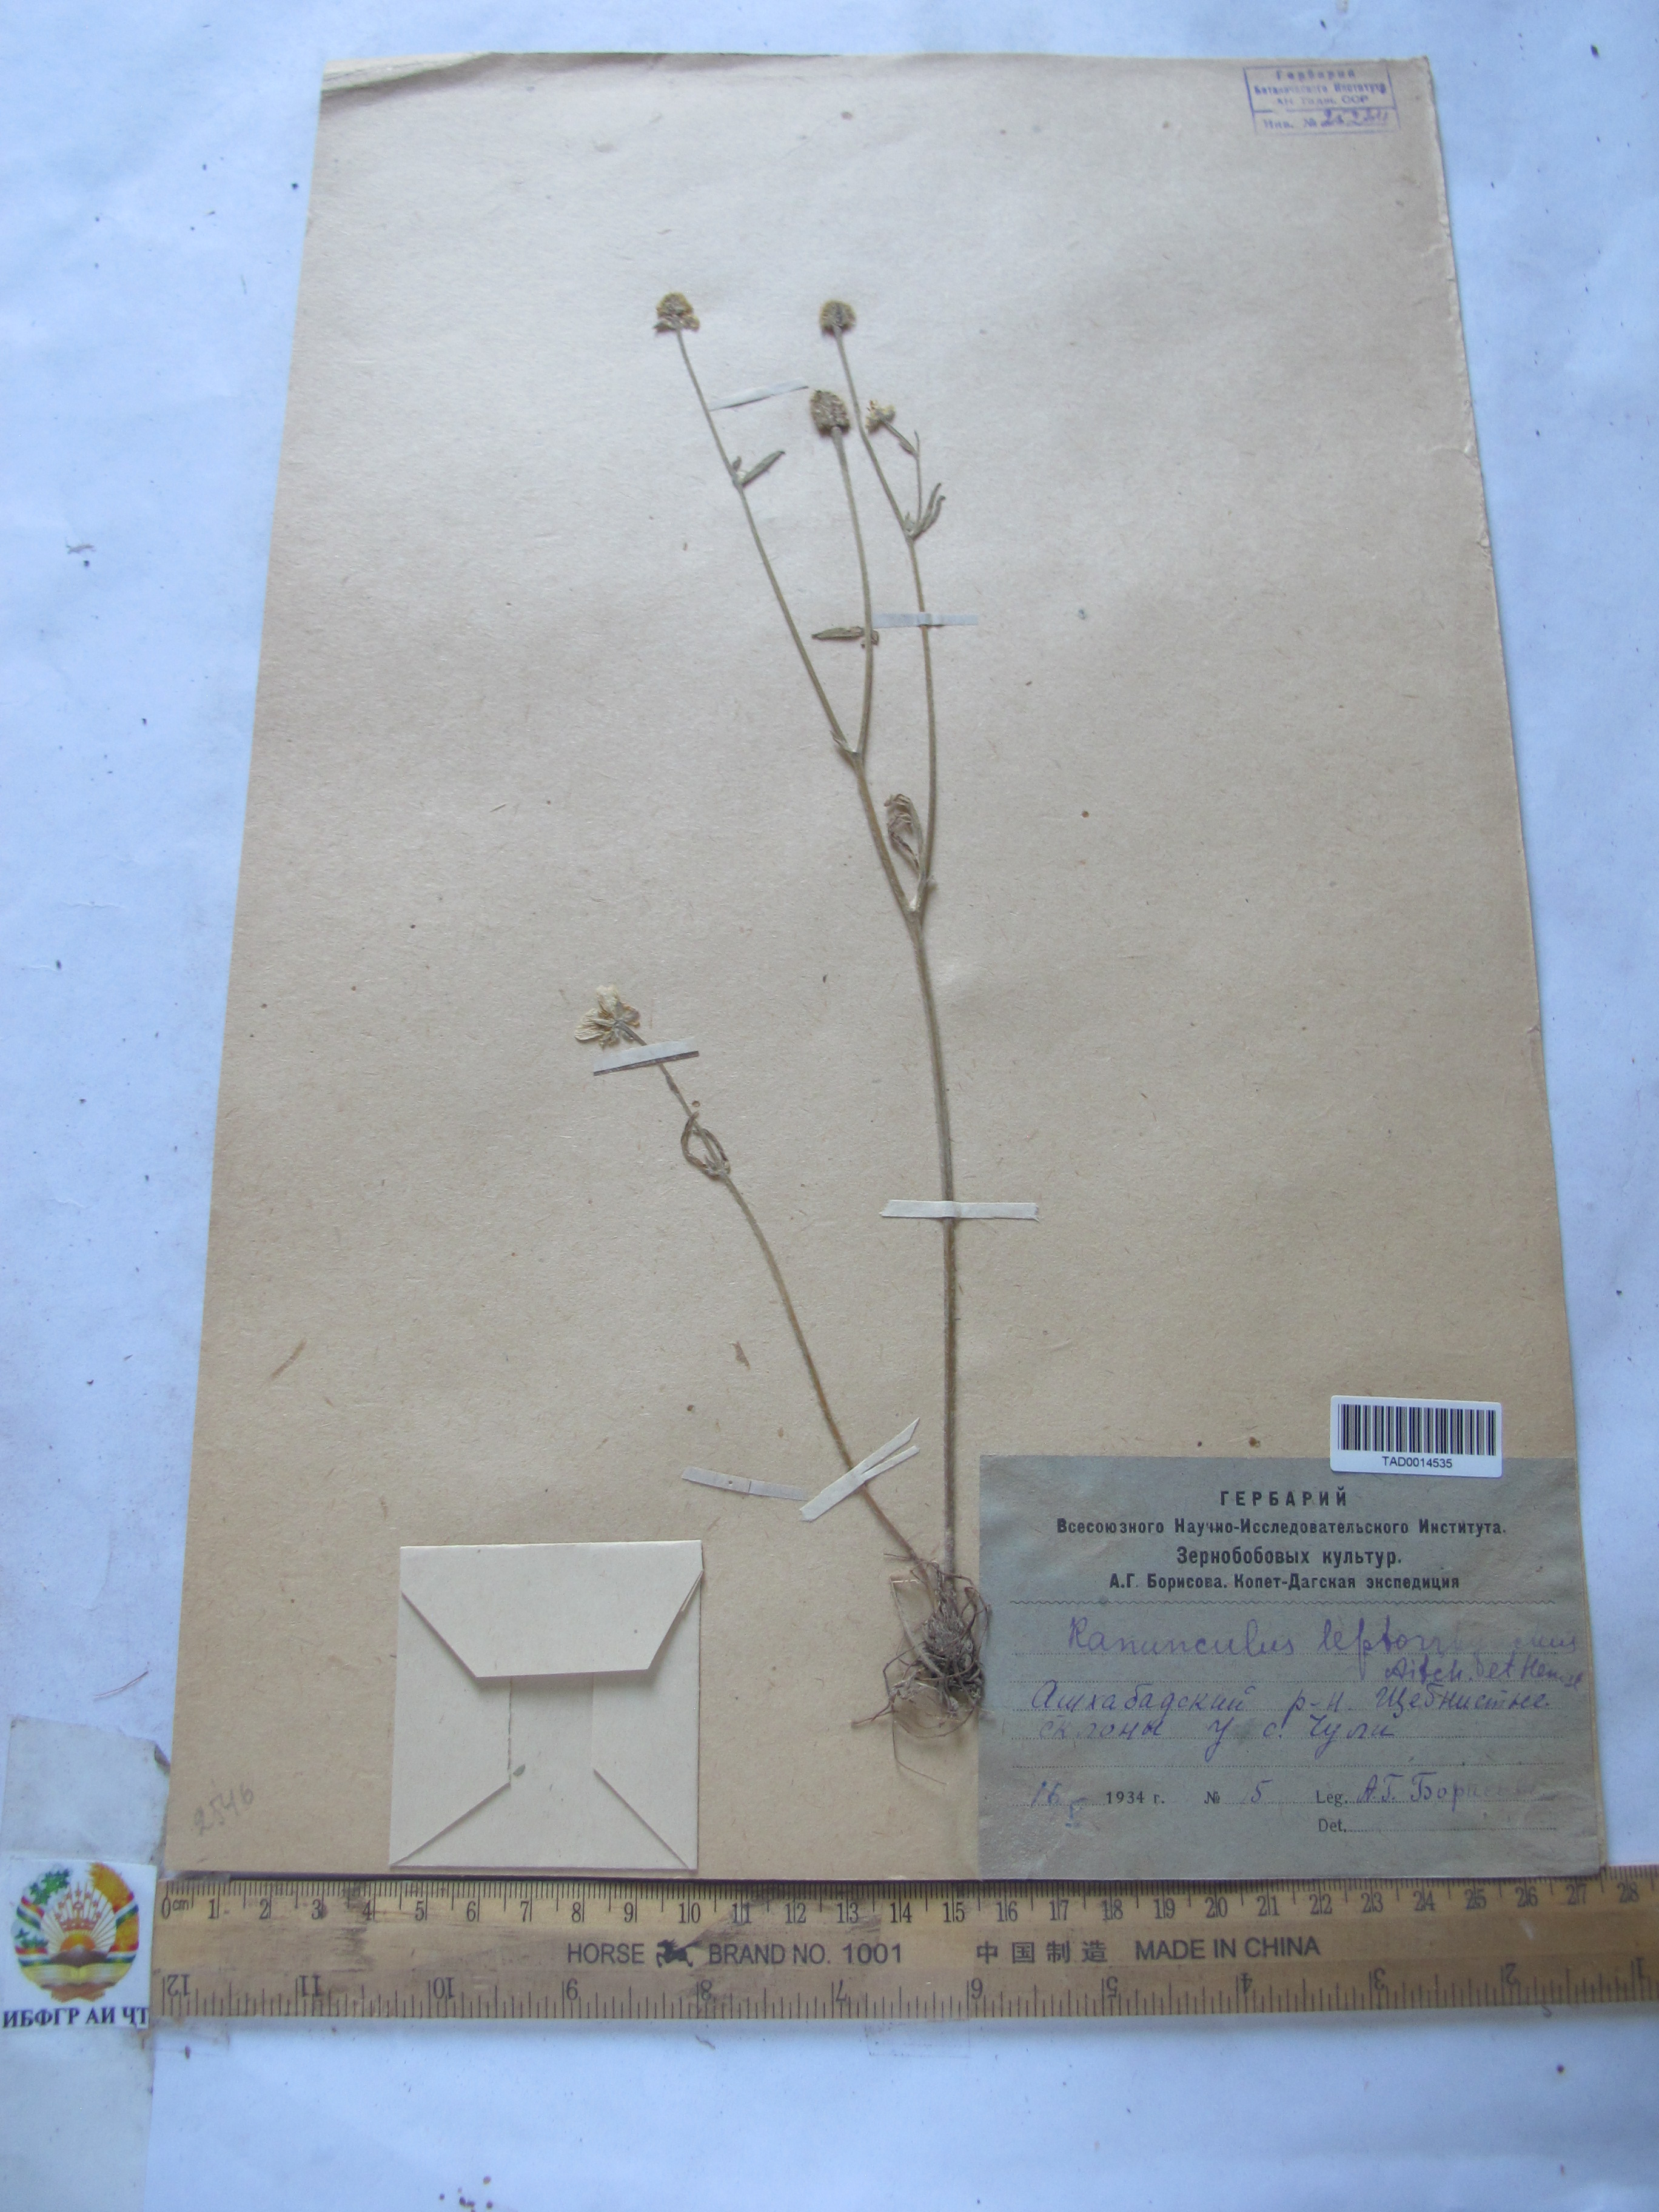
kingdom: Plantae
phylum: Tracheophyta
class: Magnoliopsida
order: Ranunculales
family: Ranunculaceae
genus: Ranunculus
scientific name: Ranunculus leptorrhynchus
